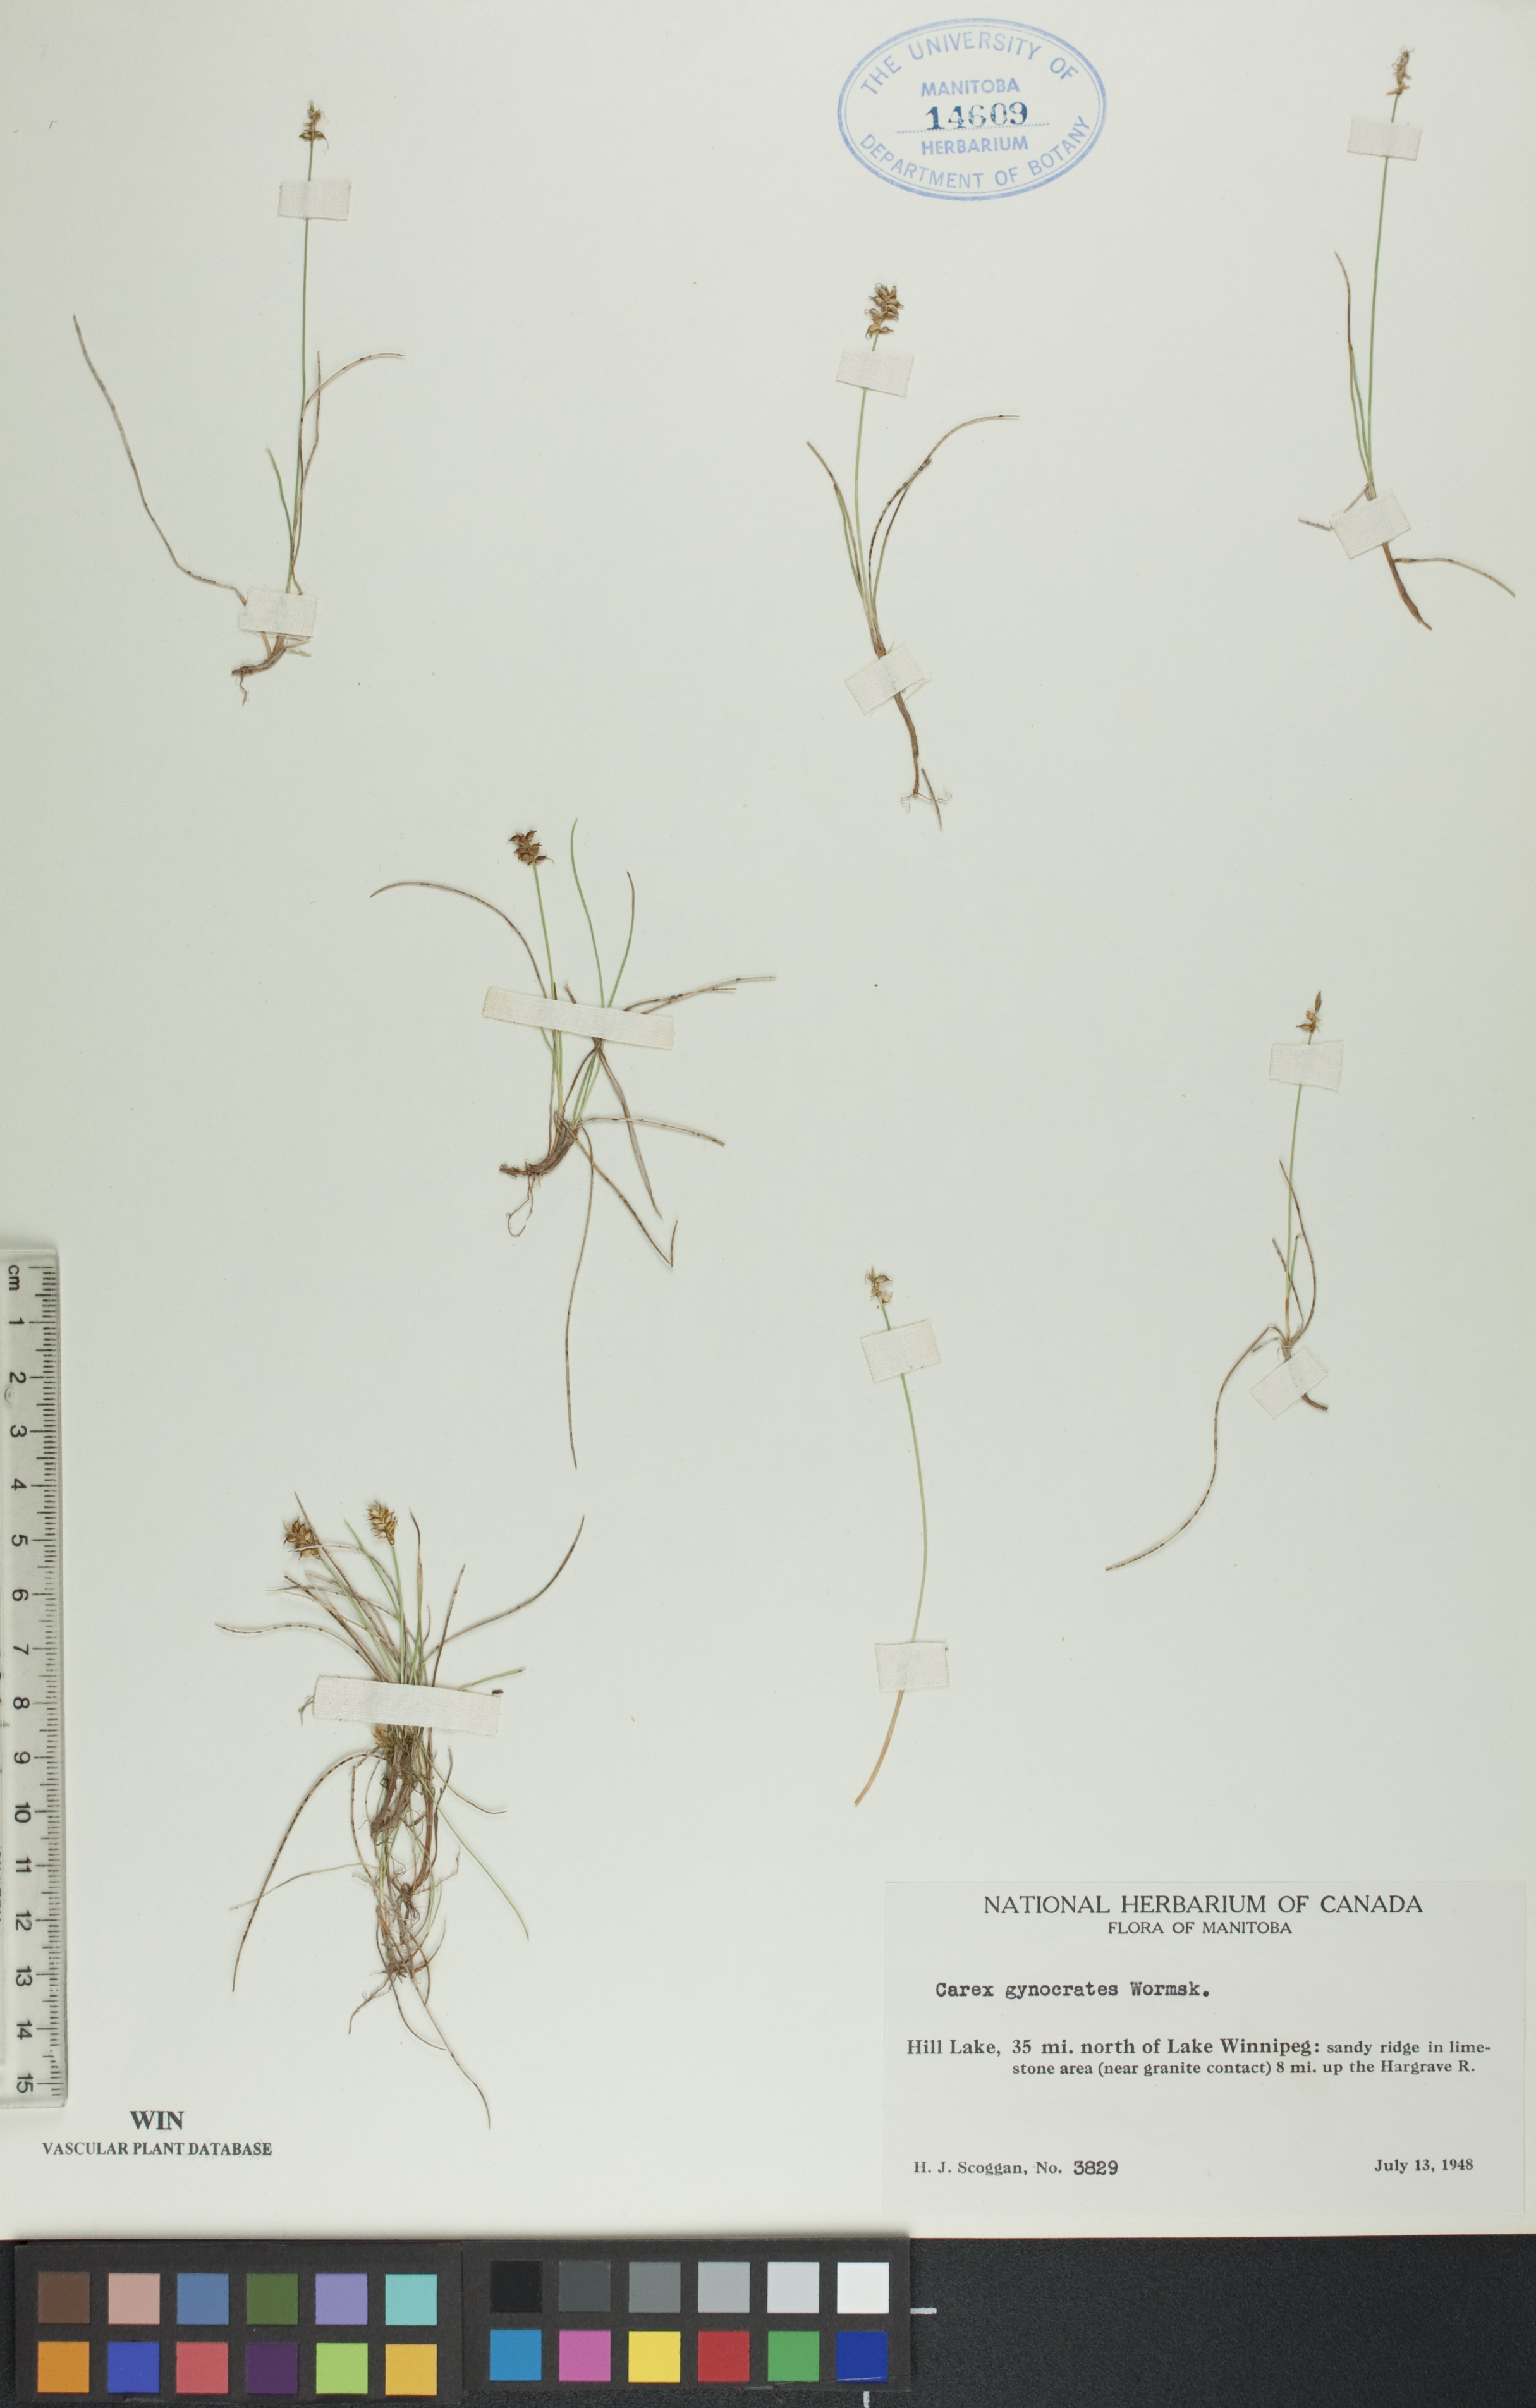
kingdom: Plantae
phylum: Tracheophyta
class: Liliopsida
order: Poales
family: Cyperaceae
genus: Carex
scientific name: Carex nardina
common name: Nard sedge
